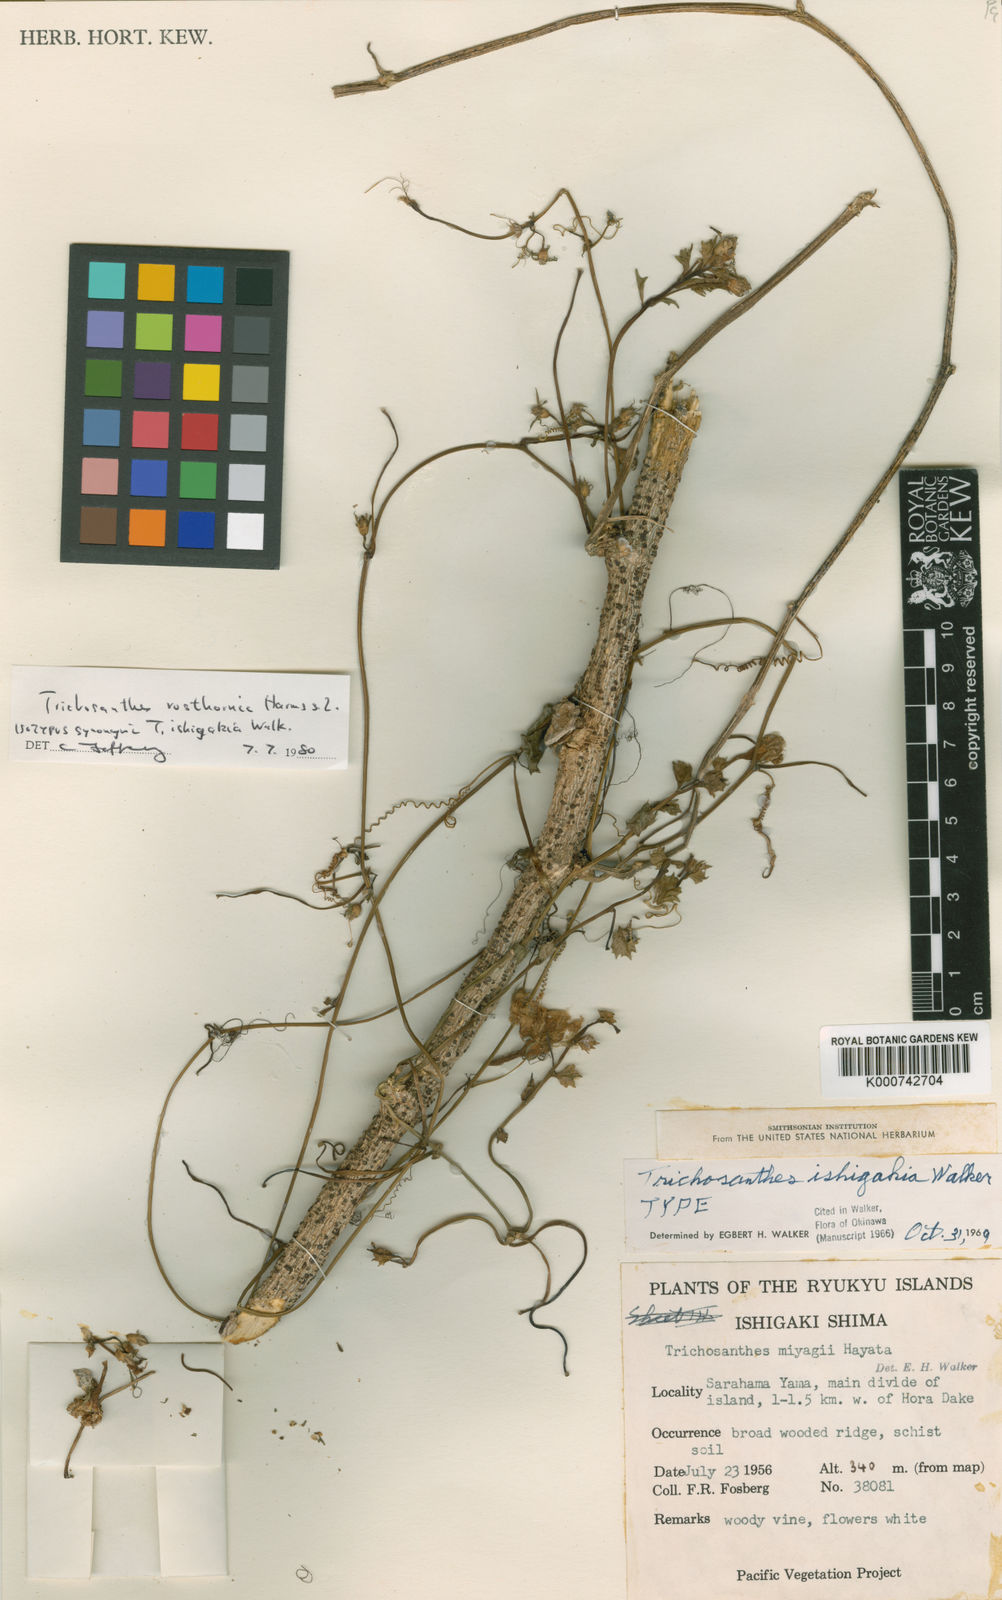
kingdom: Plantae
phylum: Tracheophyta
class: Magnoliopsida
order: Cucurbitales
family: Cucurbitaceae
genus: Trichosanthes
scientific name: Trichosanthes miyagii
